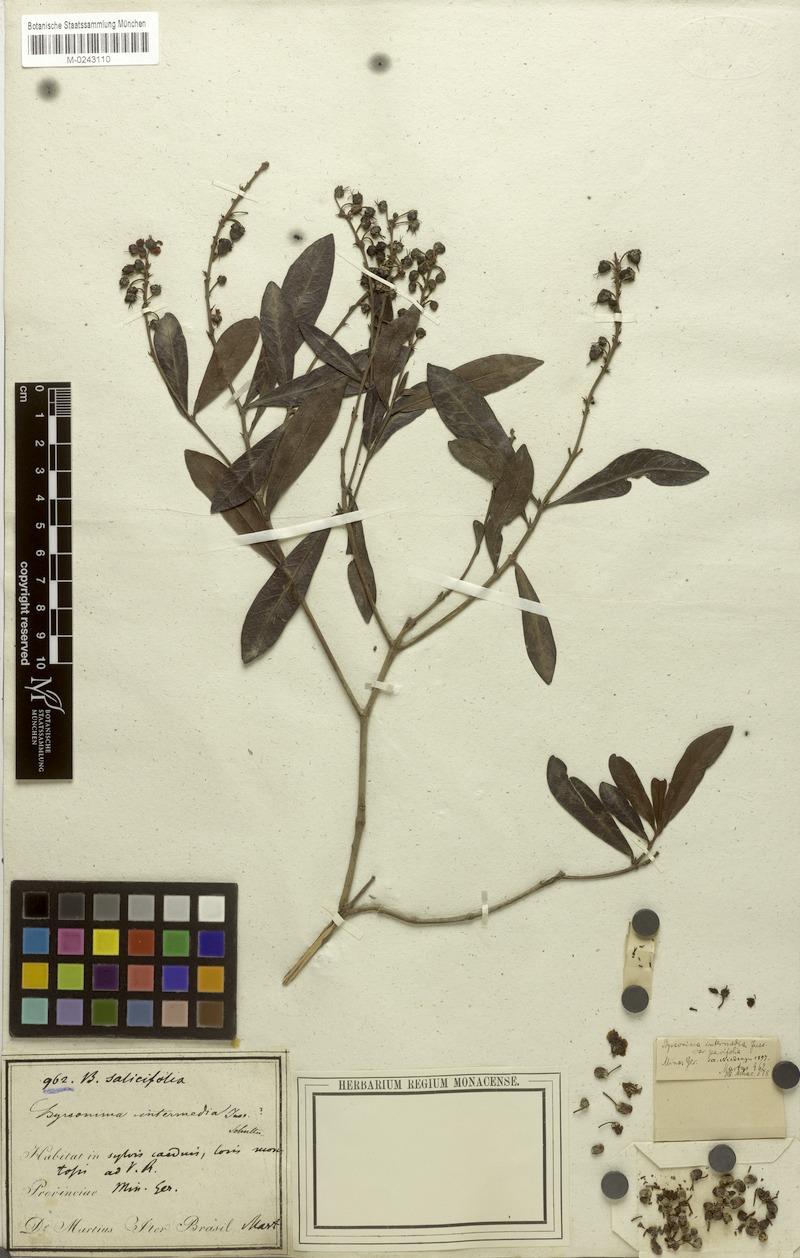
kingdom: Plantae
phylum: Tracheophyta
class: Magnoliopsida
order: Malpighiales
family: Malpighiaceae
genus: Byrsonima
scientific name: Byrsonima intermedia
